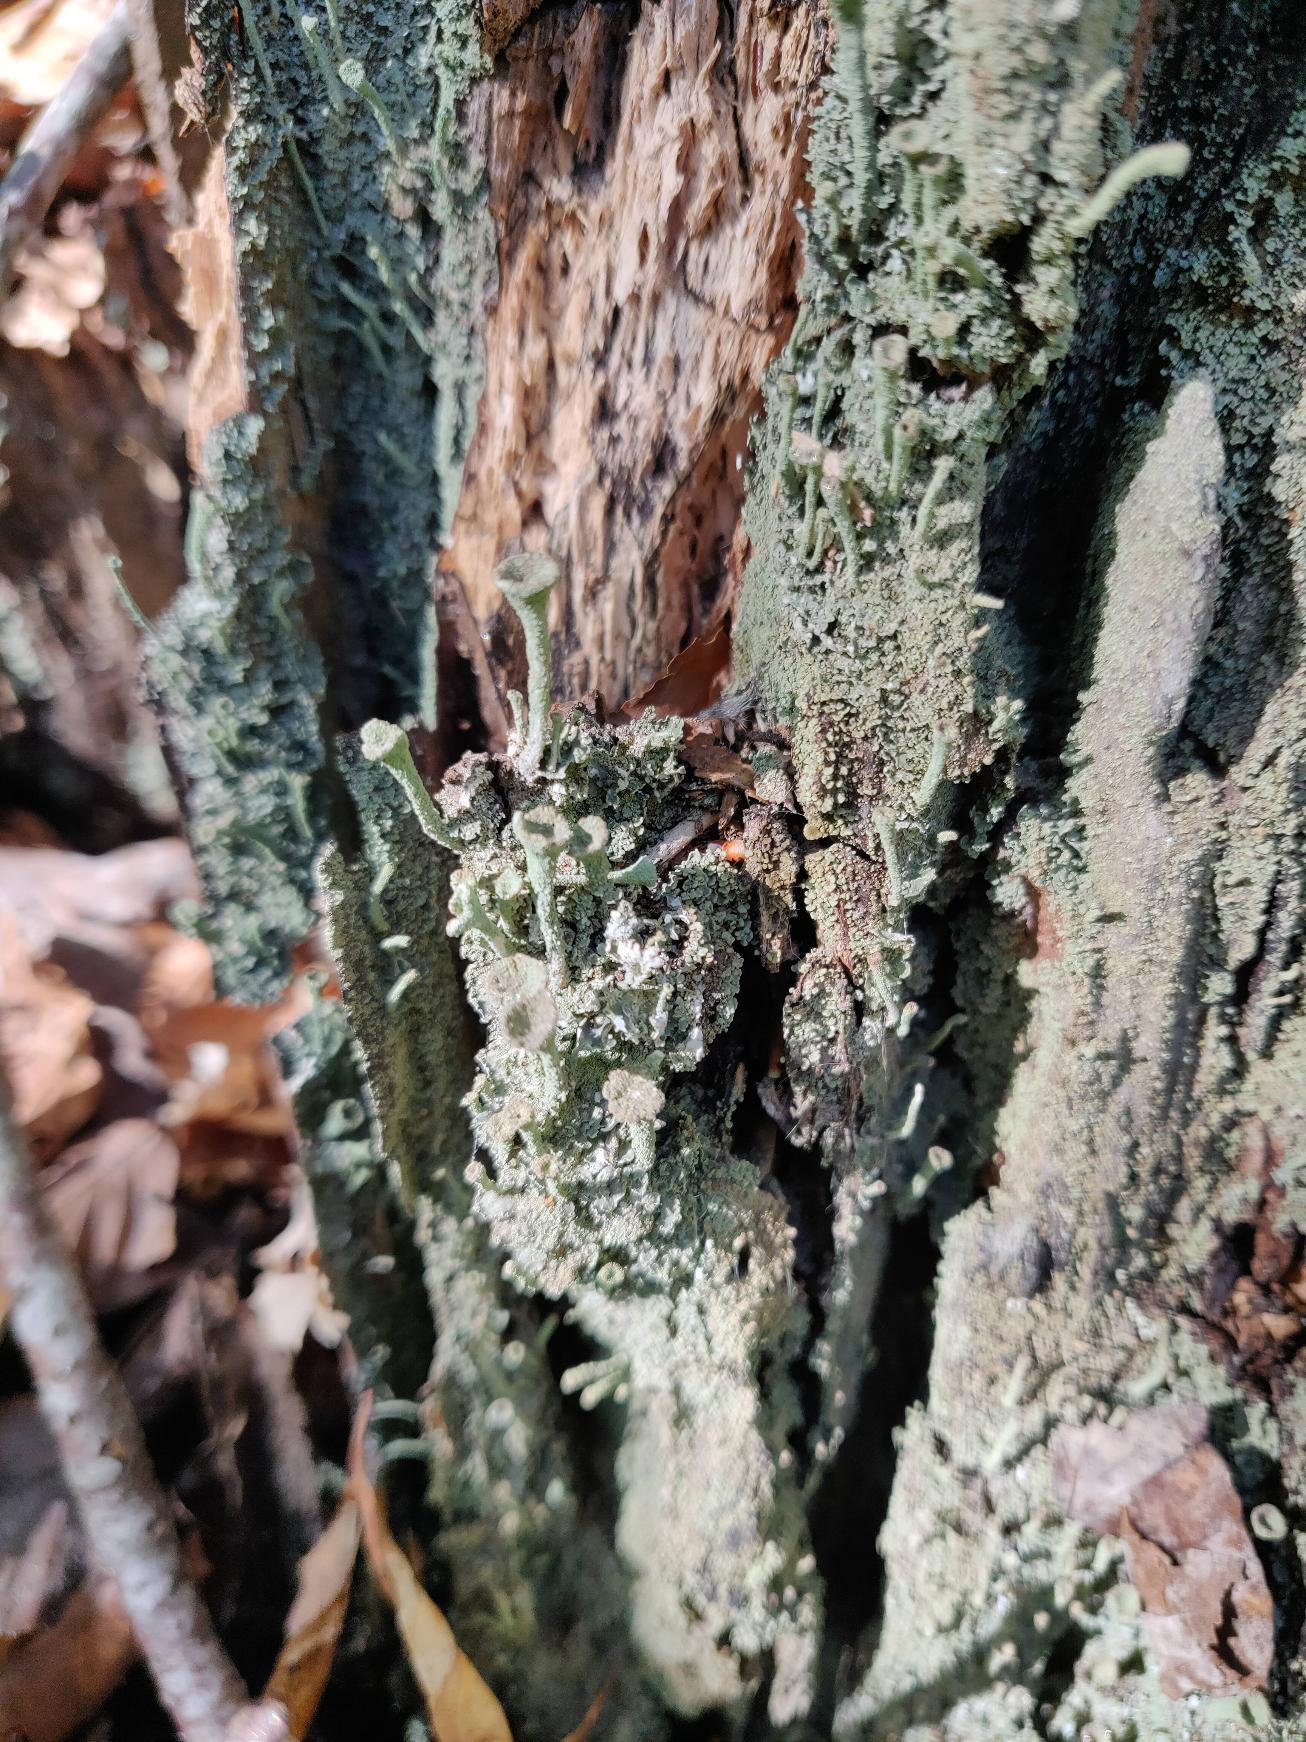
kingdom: Fungi
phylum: Ascomycota
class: Lecanoromycetes
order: Lecanorales
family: Cladoniaceae
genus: Cladonia
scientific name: Cladonia
